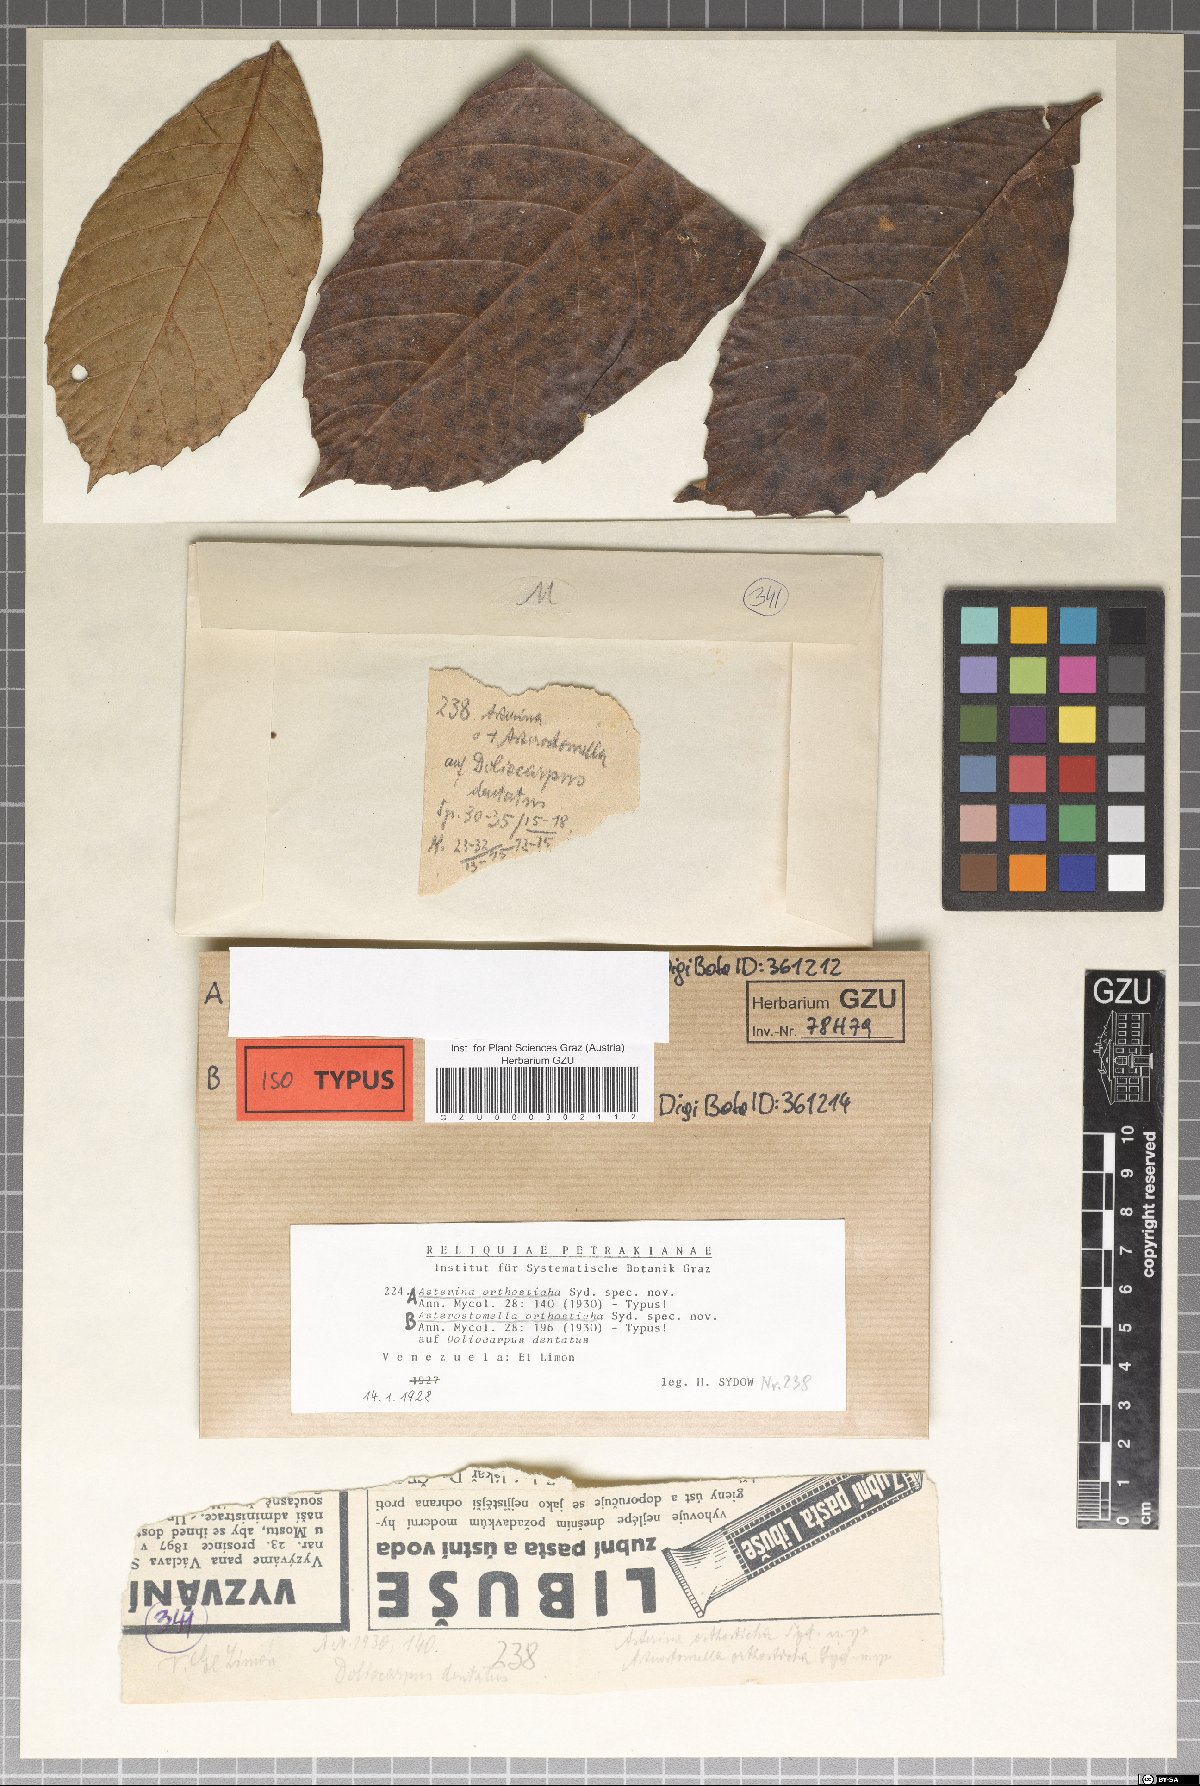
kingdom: Fungi
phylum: Ascomycota
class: Dothideomycetes
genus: Asteromella
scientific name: Asteromella
